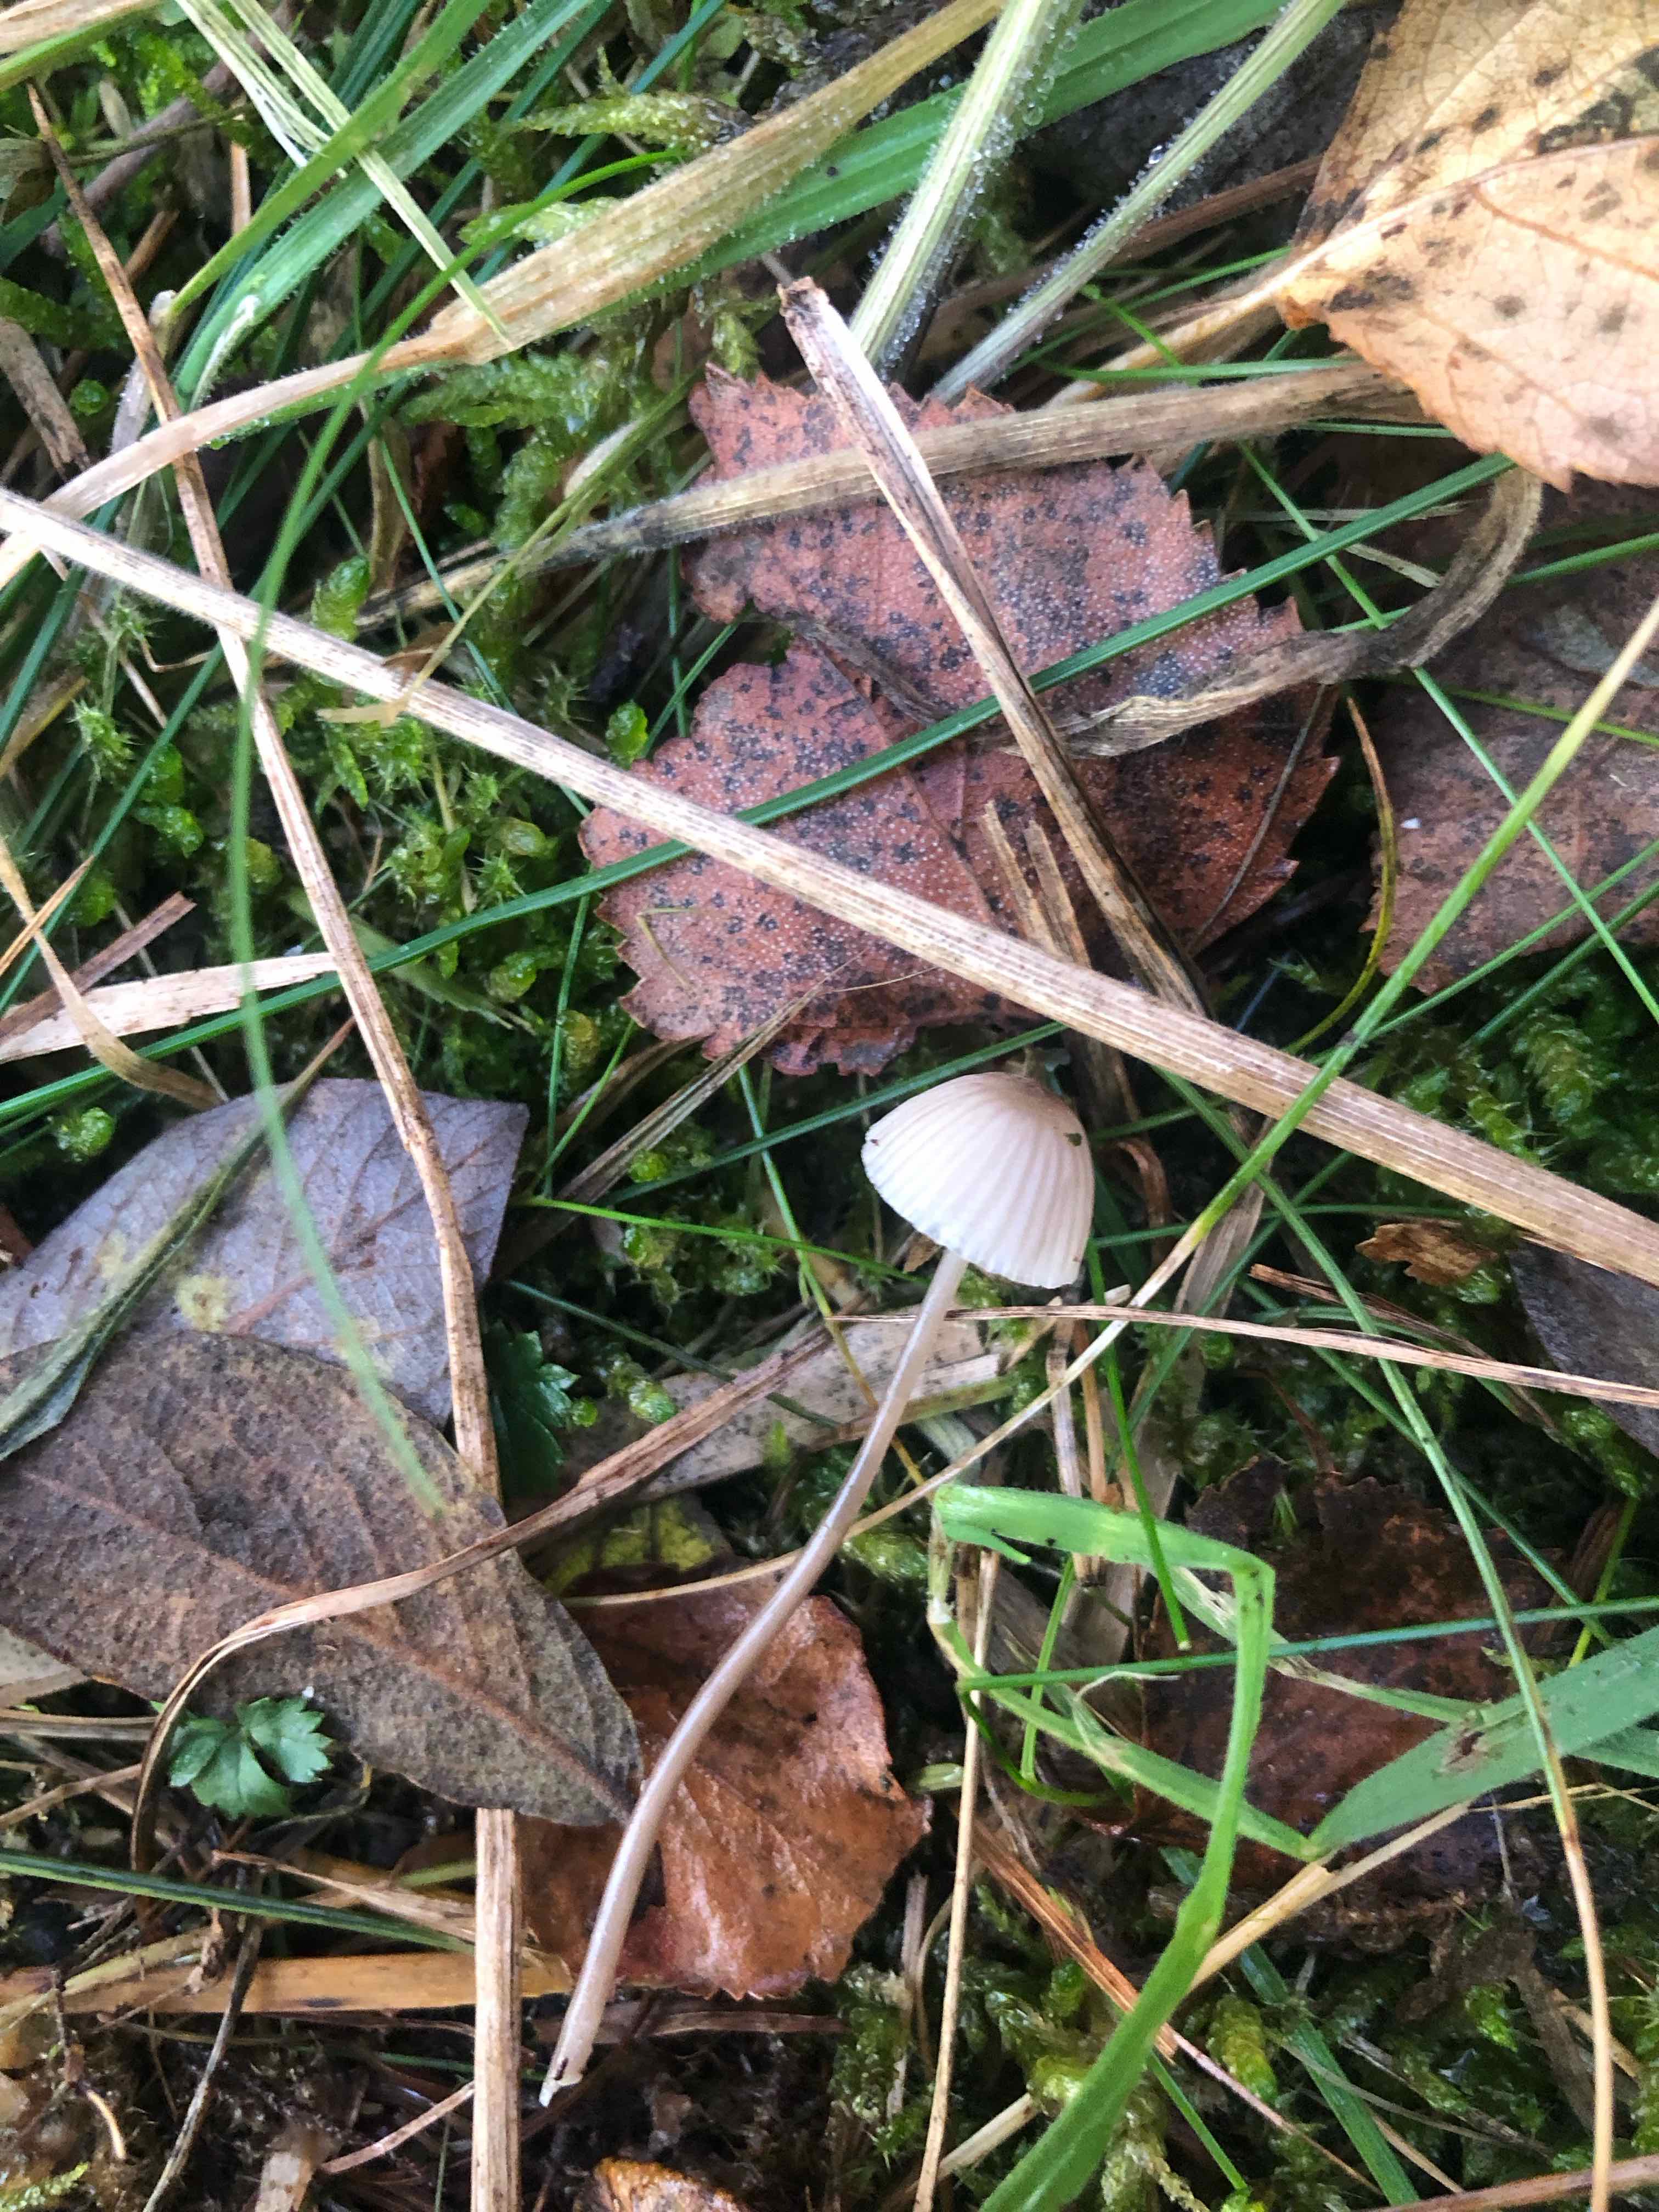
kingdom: Fungi
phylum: Basidiomycota
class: Agaricomycetes
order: Agaricales
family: Mycenaceae
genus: Mycena
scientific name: Mycena
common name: huesvamp
